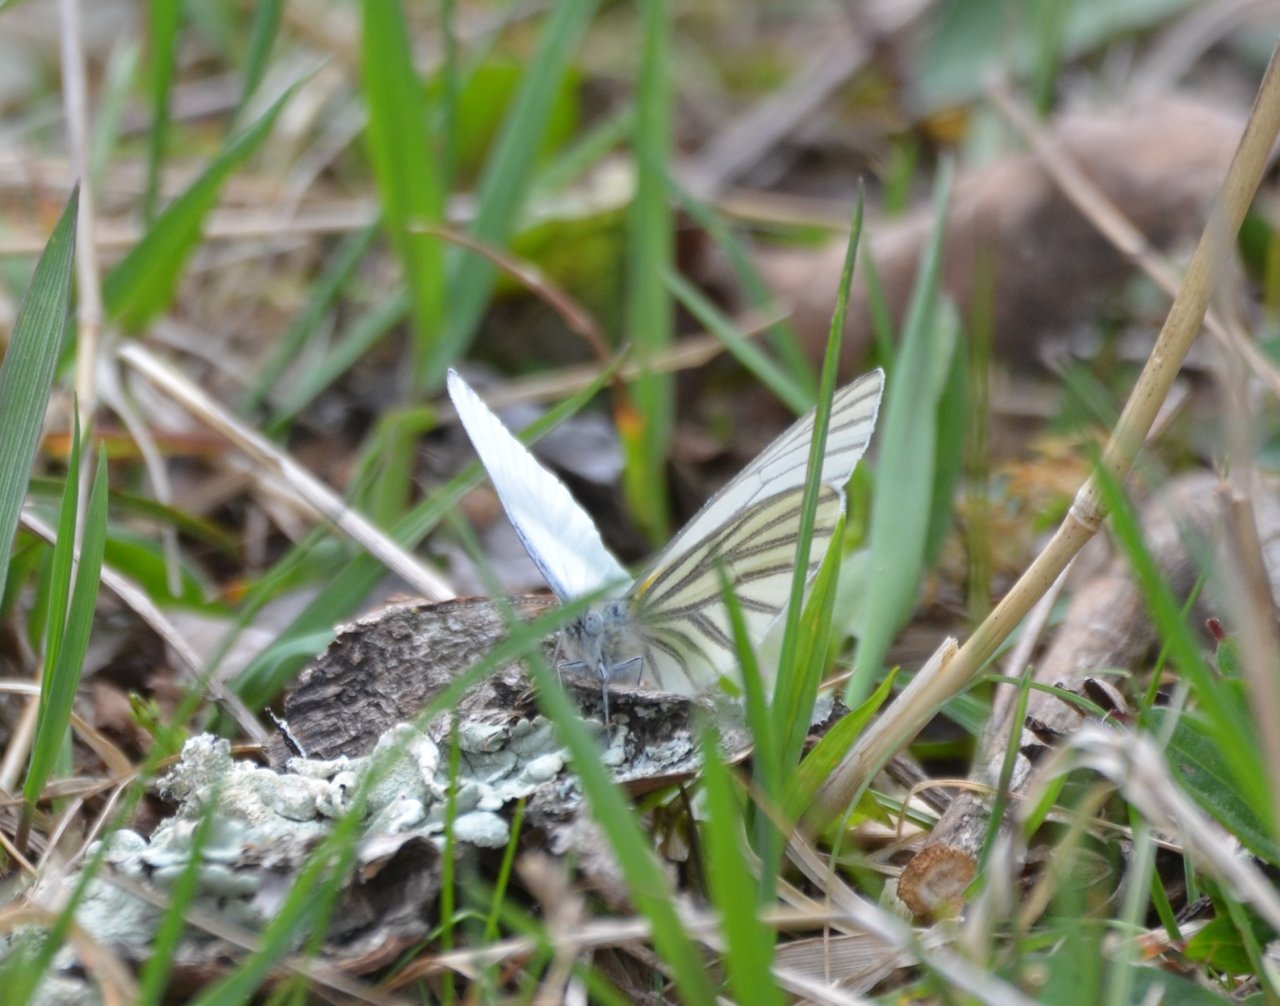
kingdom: Animalia
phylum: Arthropoda
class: Insecta
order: Lepidoptera
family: Pieridae
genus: Pieris
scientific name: Pieris oleracea
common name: Mustard White
